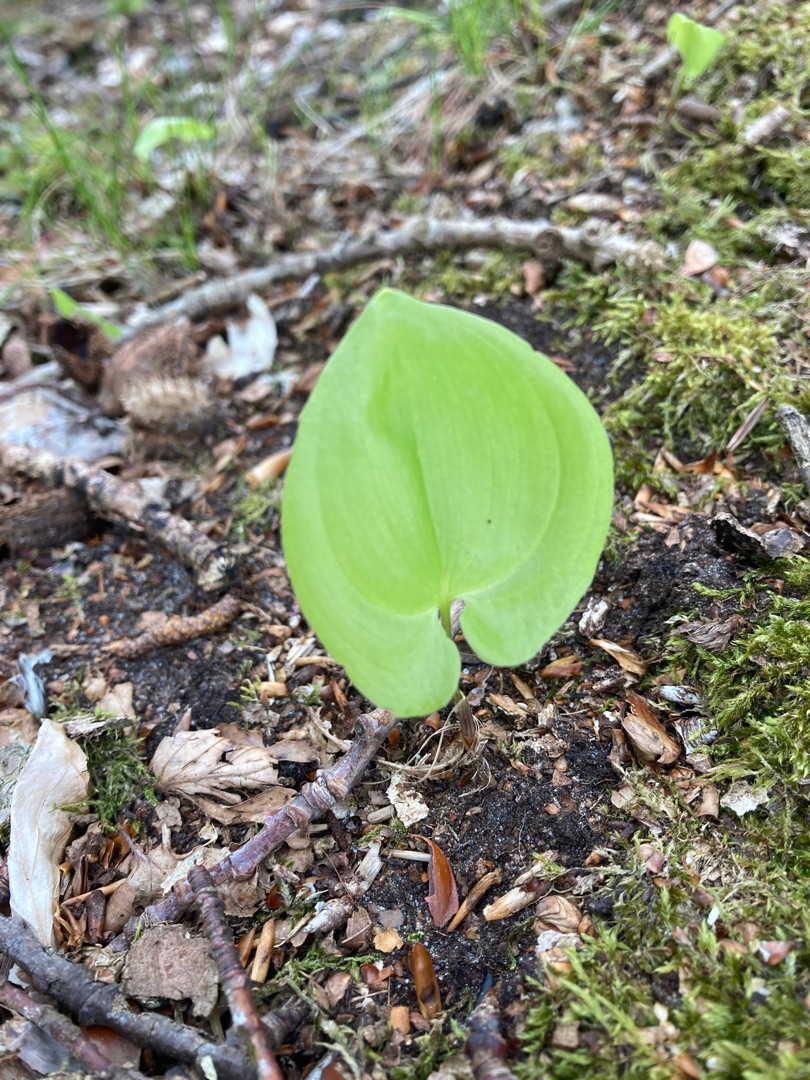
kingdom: Plantae
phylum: Tracheophyta
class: Liliopsida
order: Asparagales
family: Asparagaceae
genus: Maianthemum
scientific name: Maianthemum bifolium
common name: Majblomst
